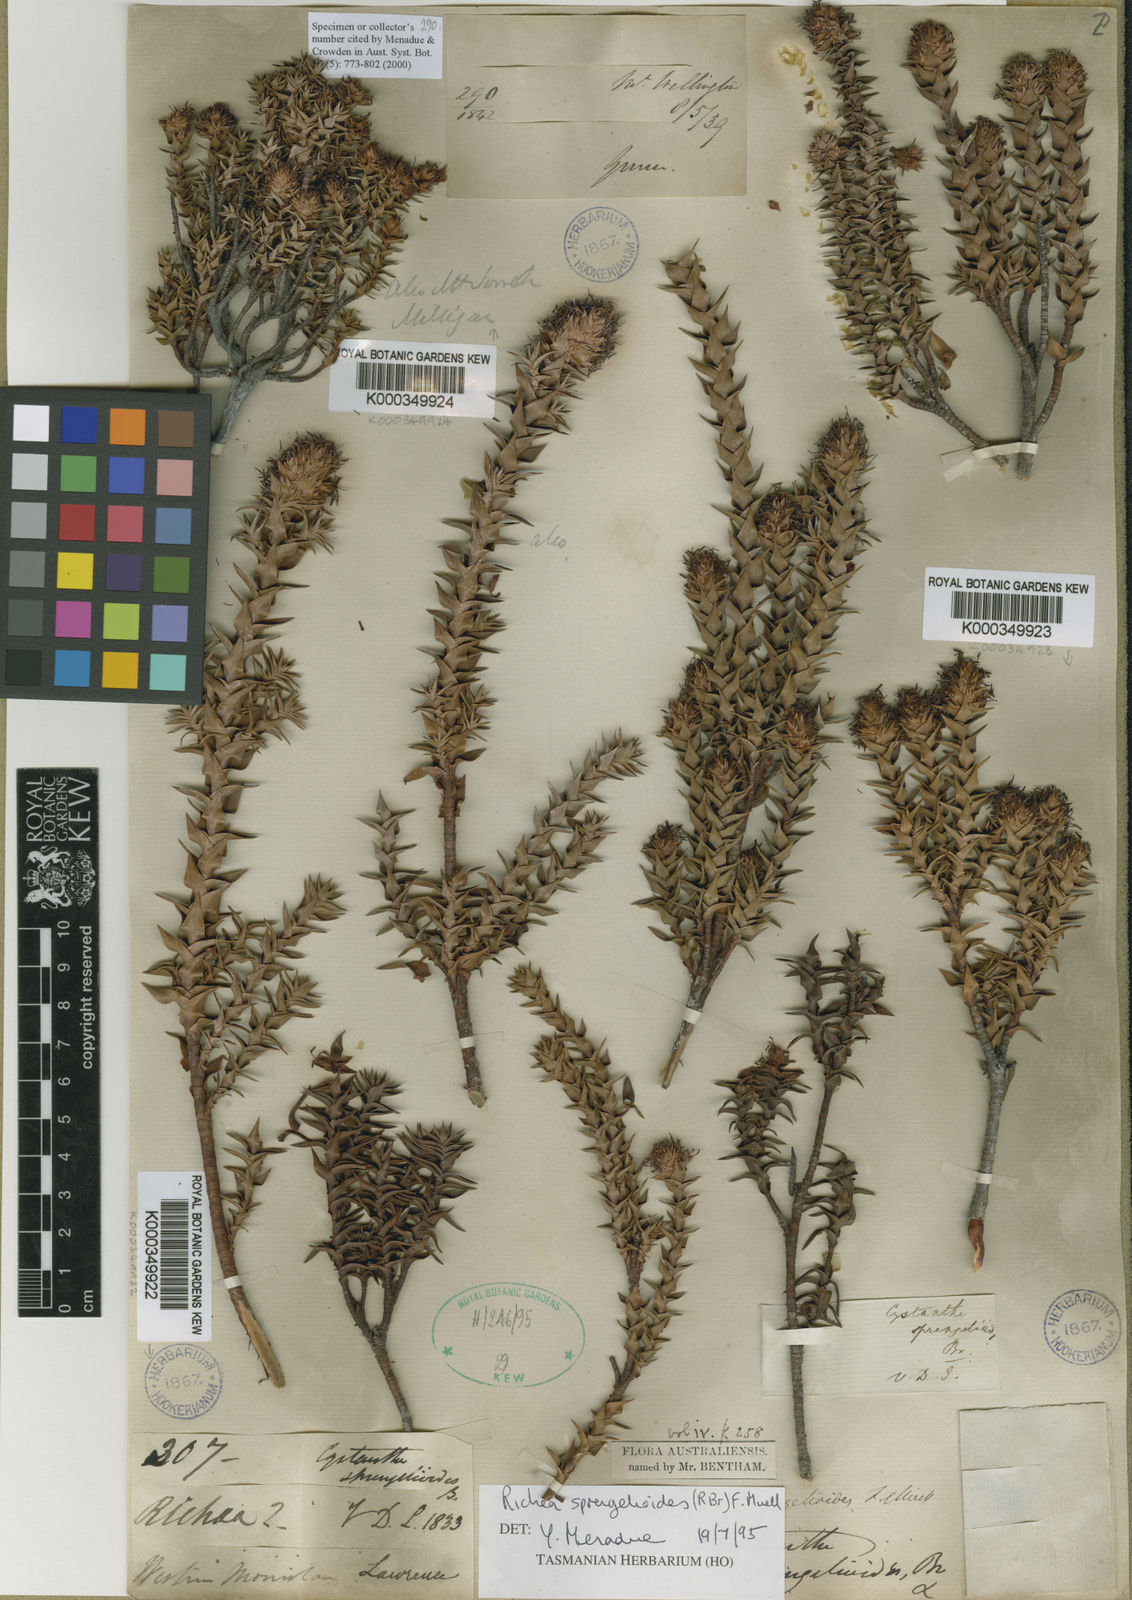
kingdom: Plantae
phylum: Tracheophyta
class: Magnoliopsida
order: Ericales
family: Ericaceae
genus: Dracophyllum
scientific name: Dracophyllum sprengelioides
